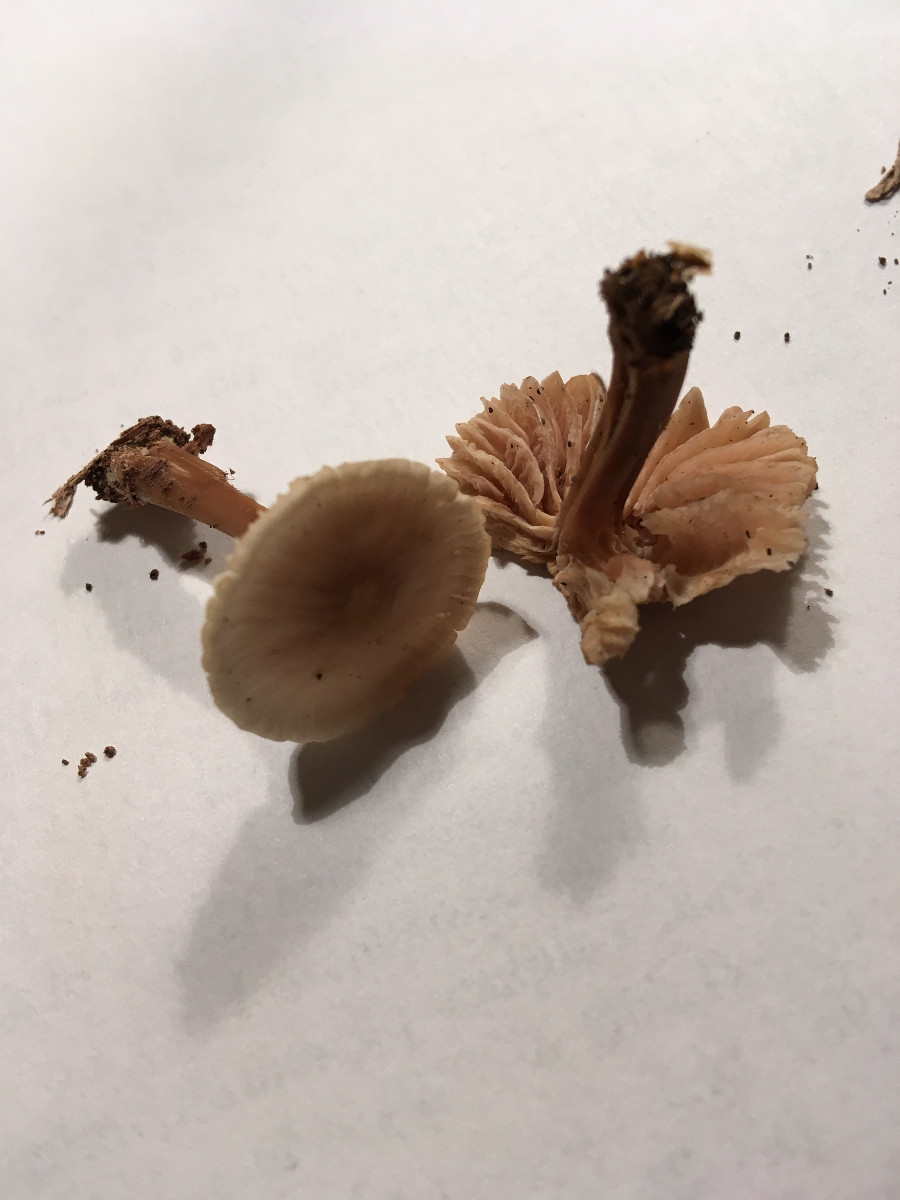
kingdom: Fungi
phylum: Basidiomycota
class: Agaricomycetes
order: Agaricales
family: Mycenaceae
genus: Mycena
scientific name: Mycena galericulata
